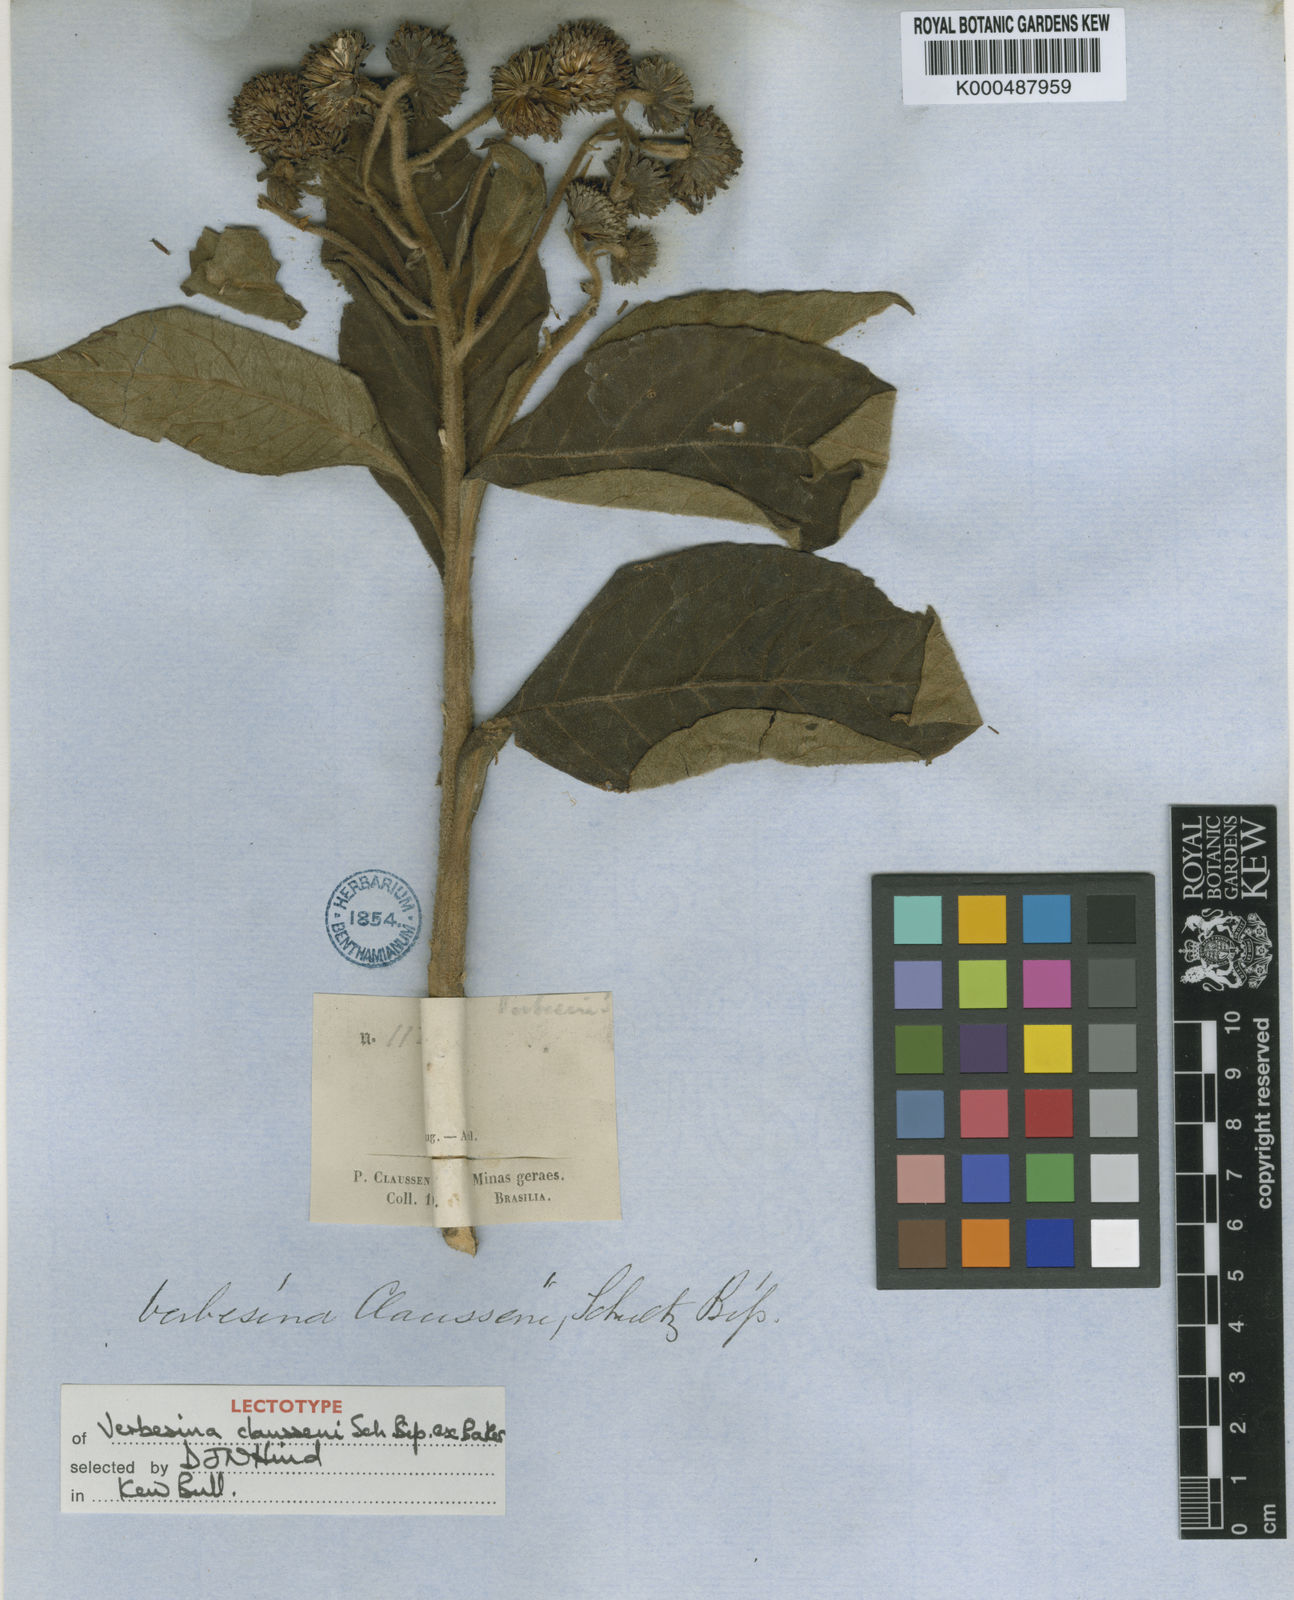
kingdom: Plantae
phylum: Tracheophyta
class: Magnoliopsida
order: Asterales
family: Asteraceae
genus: Verbesina
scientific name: Verbesina claussenii
